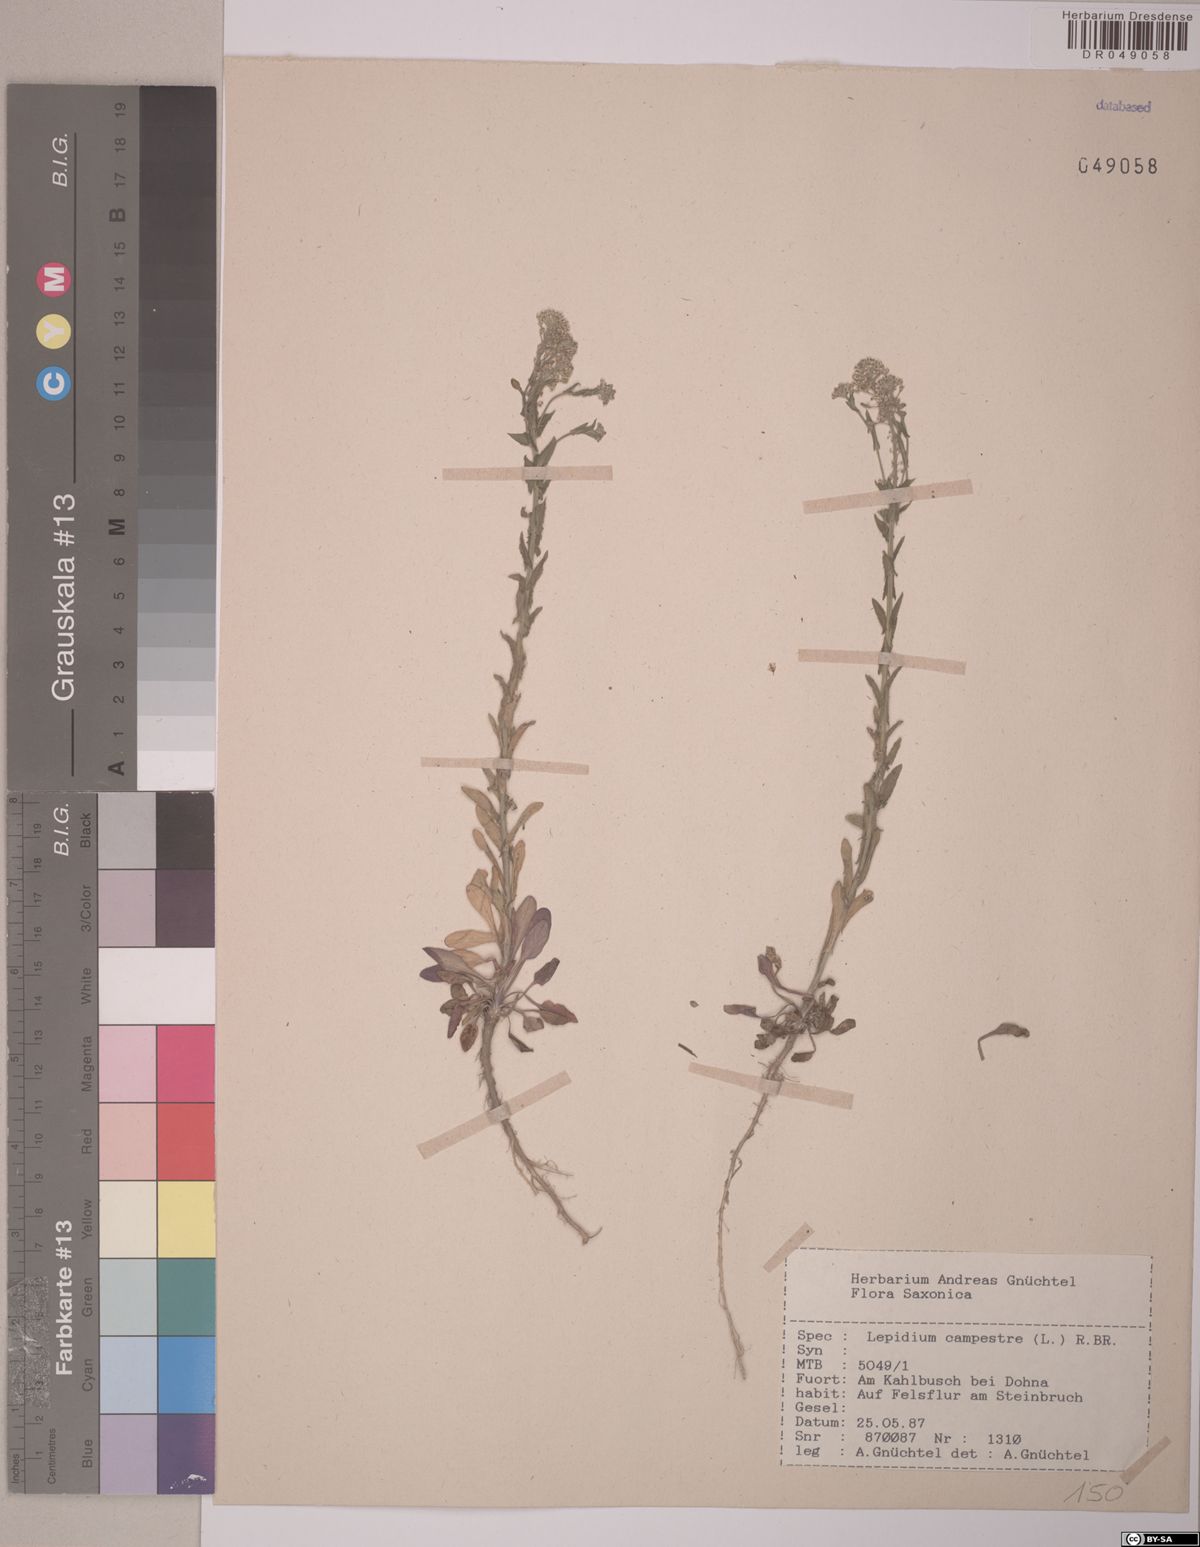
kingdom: Plantae
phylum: Tracheophyta
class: Magnoliopsida
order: Brassicales
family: Brassicaceae
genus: Lepidium
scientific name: Lepidium campestre
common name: Field pepperwort
